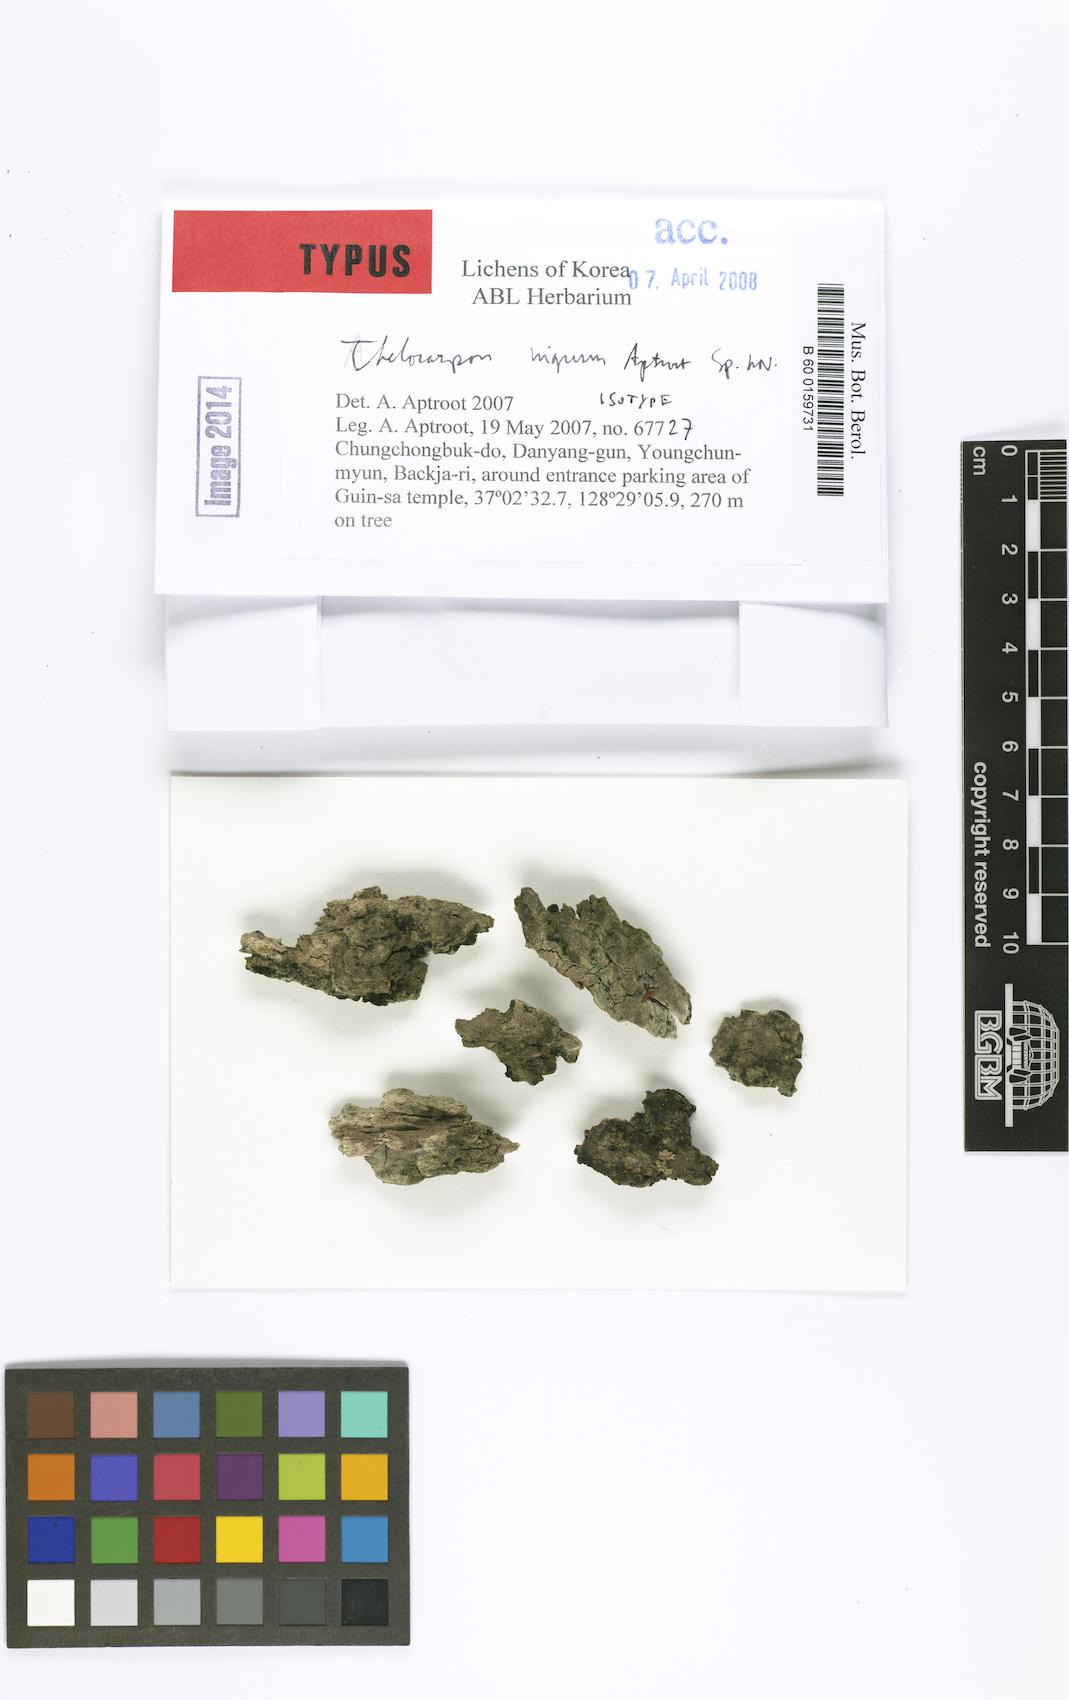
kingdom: Fungi
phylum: Ascomycota
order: Thelocarpales
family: Thelocarpaceae
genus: Thelocarpon
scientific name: Thelocarpon nigrum
